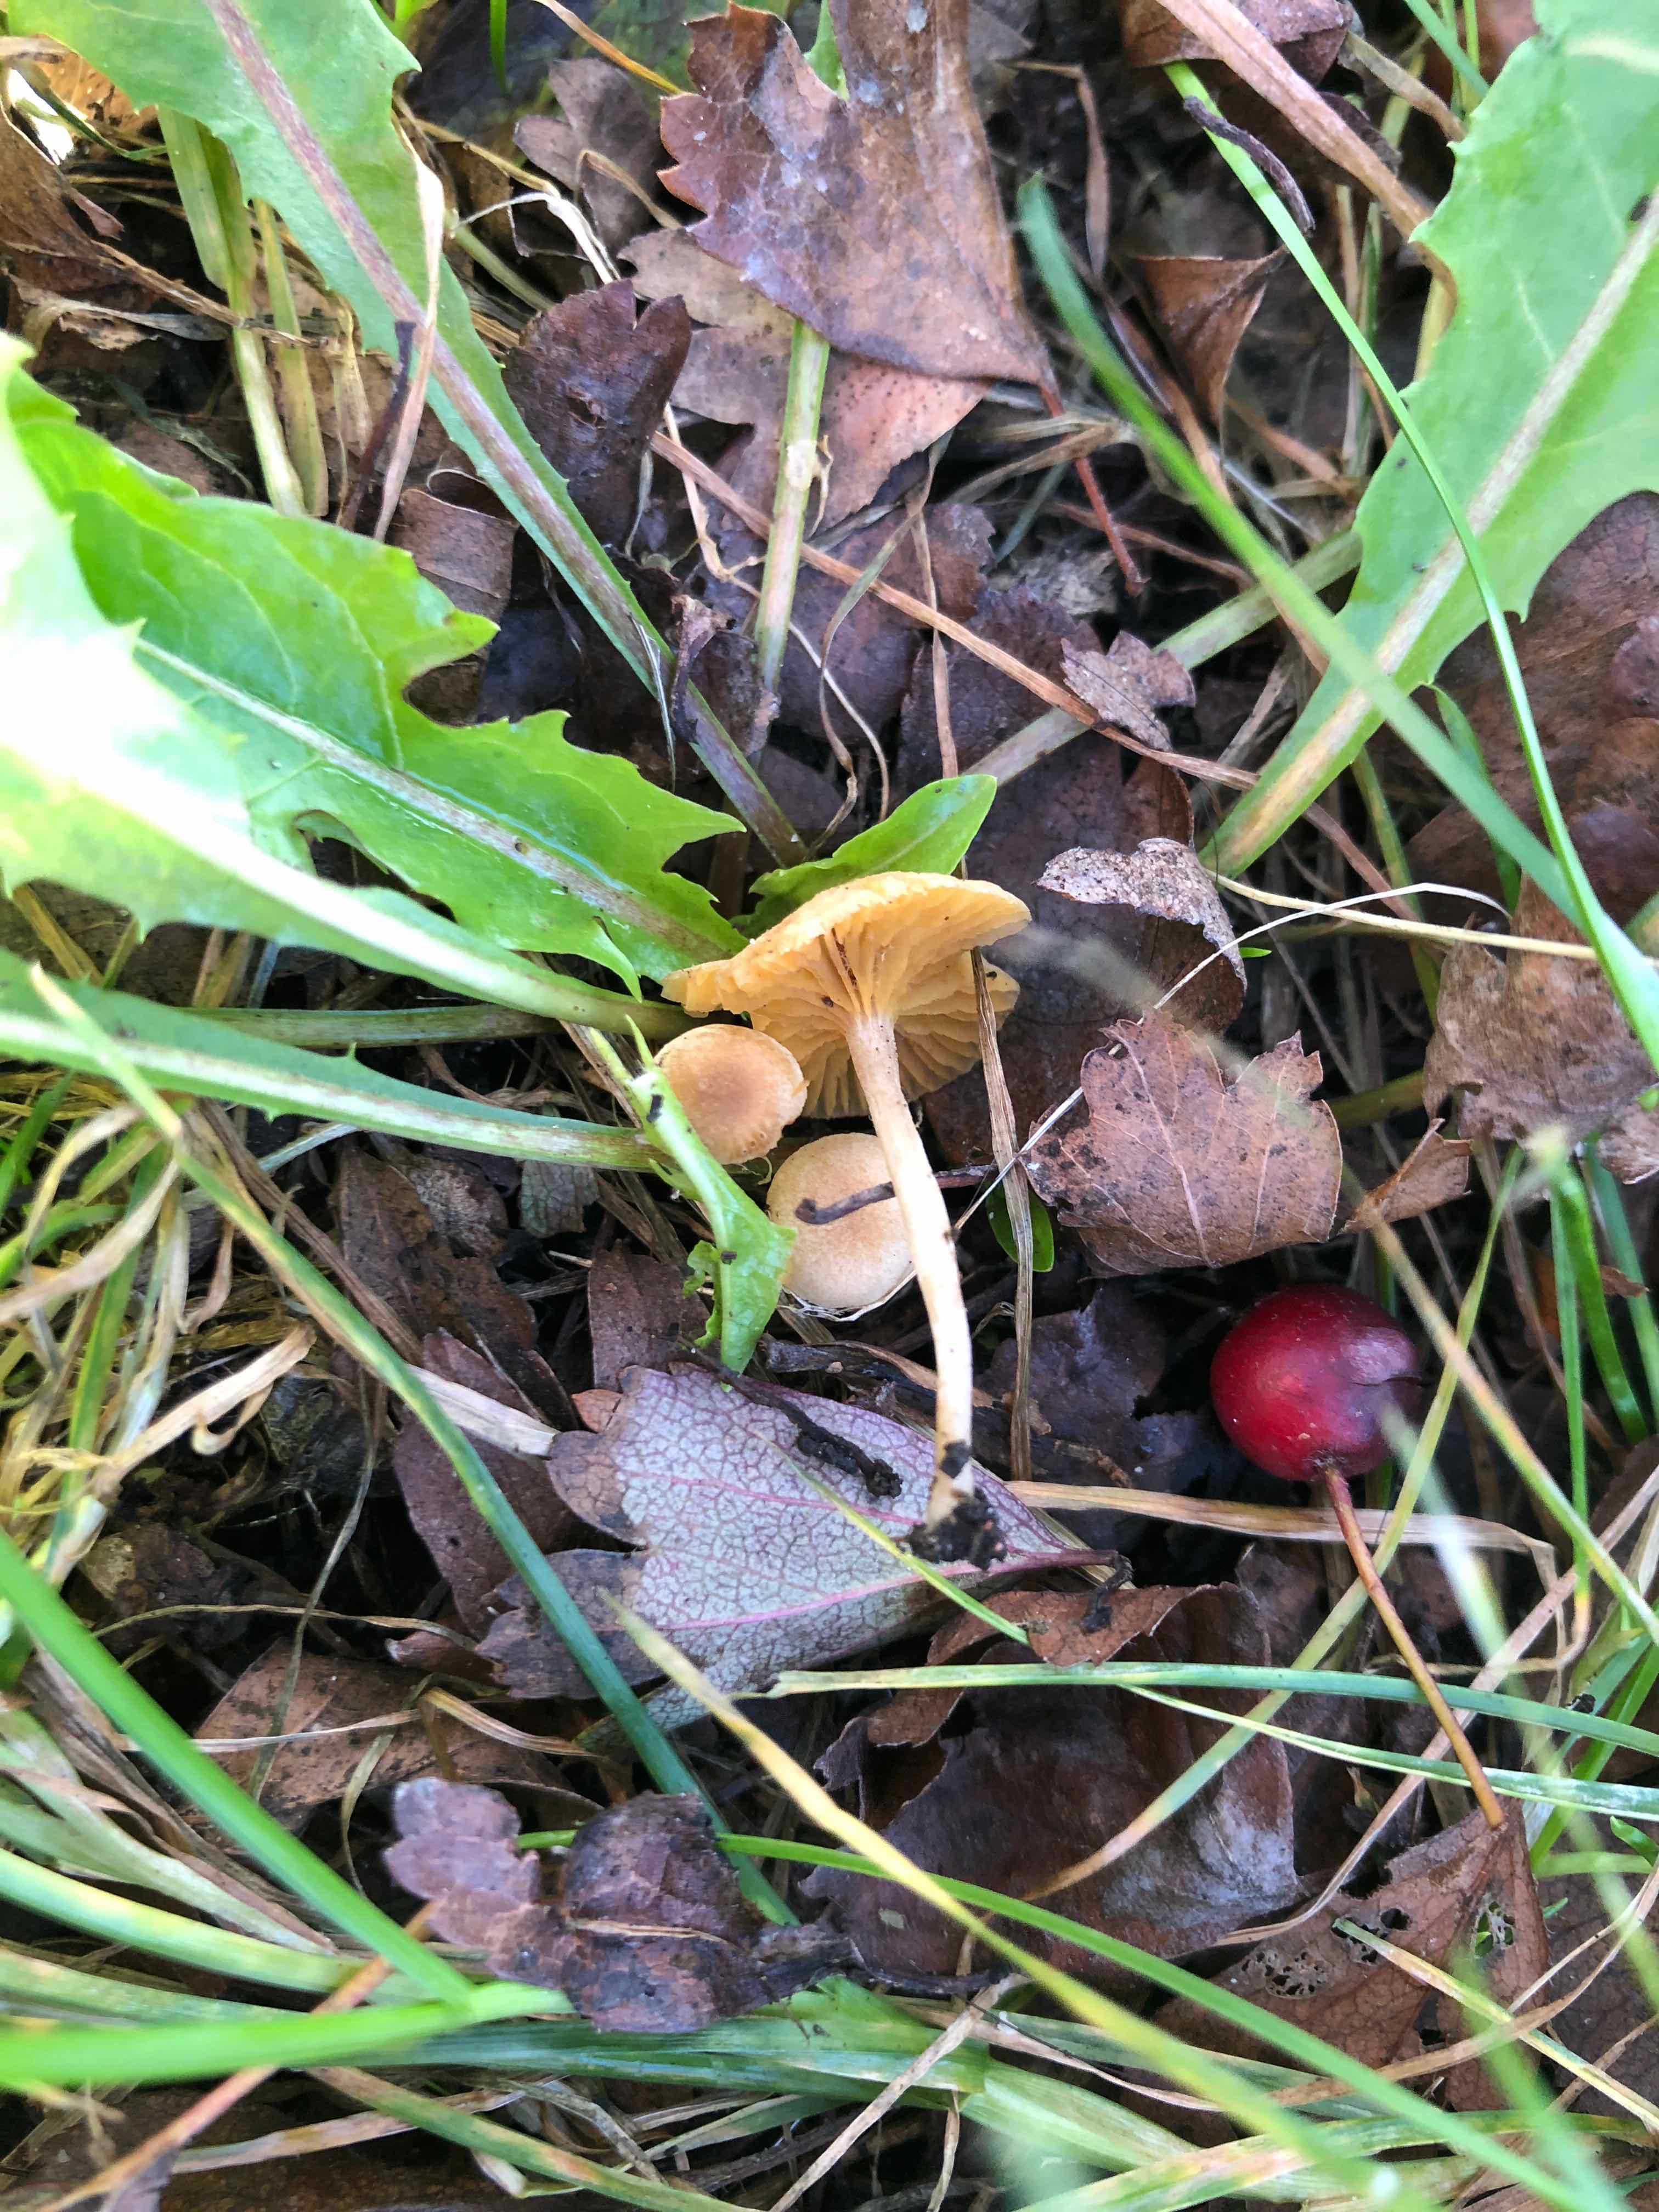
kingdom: Fungi
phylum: Basidiomycota
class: Agaricomycetes
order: Agaricales
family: Tubariaceae
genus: Tubaria
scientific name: Tubaria dispersa
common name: tjørne-fnughat
